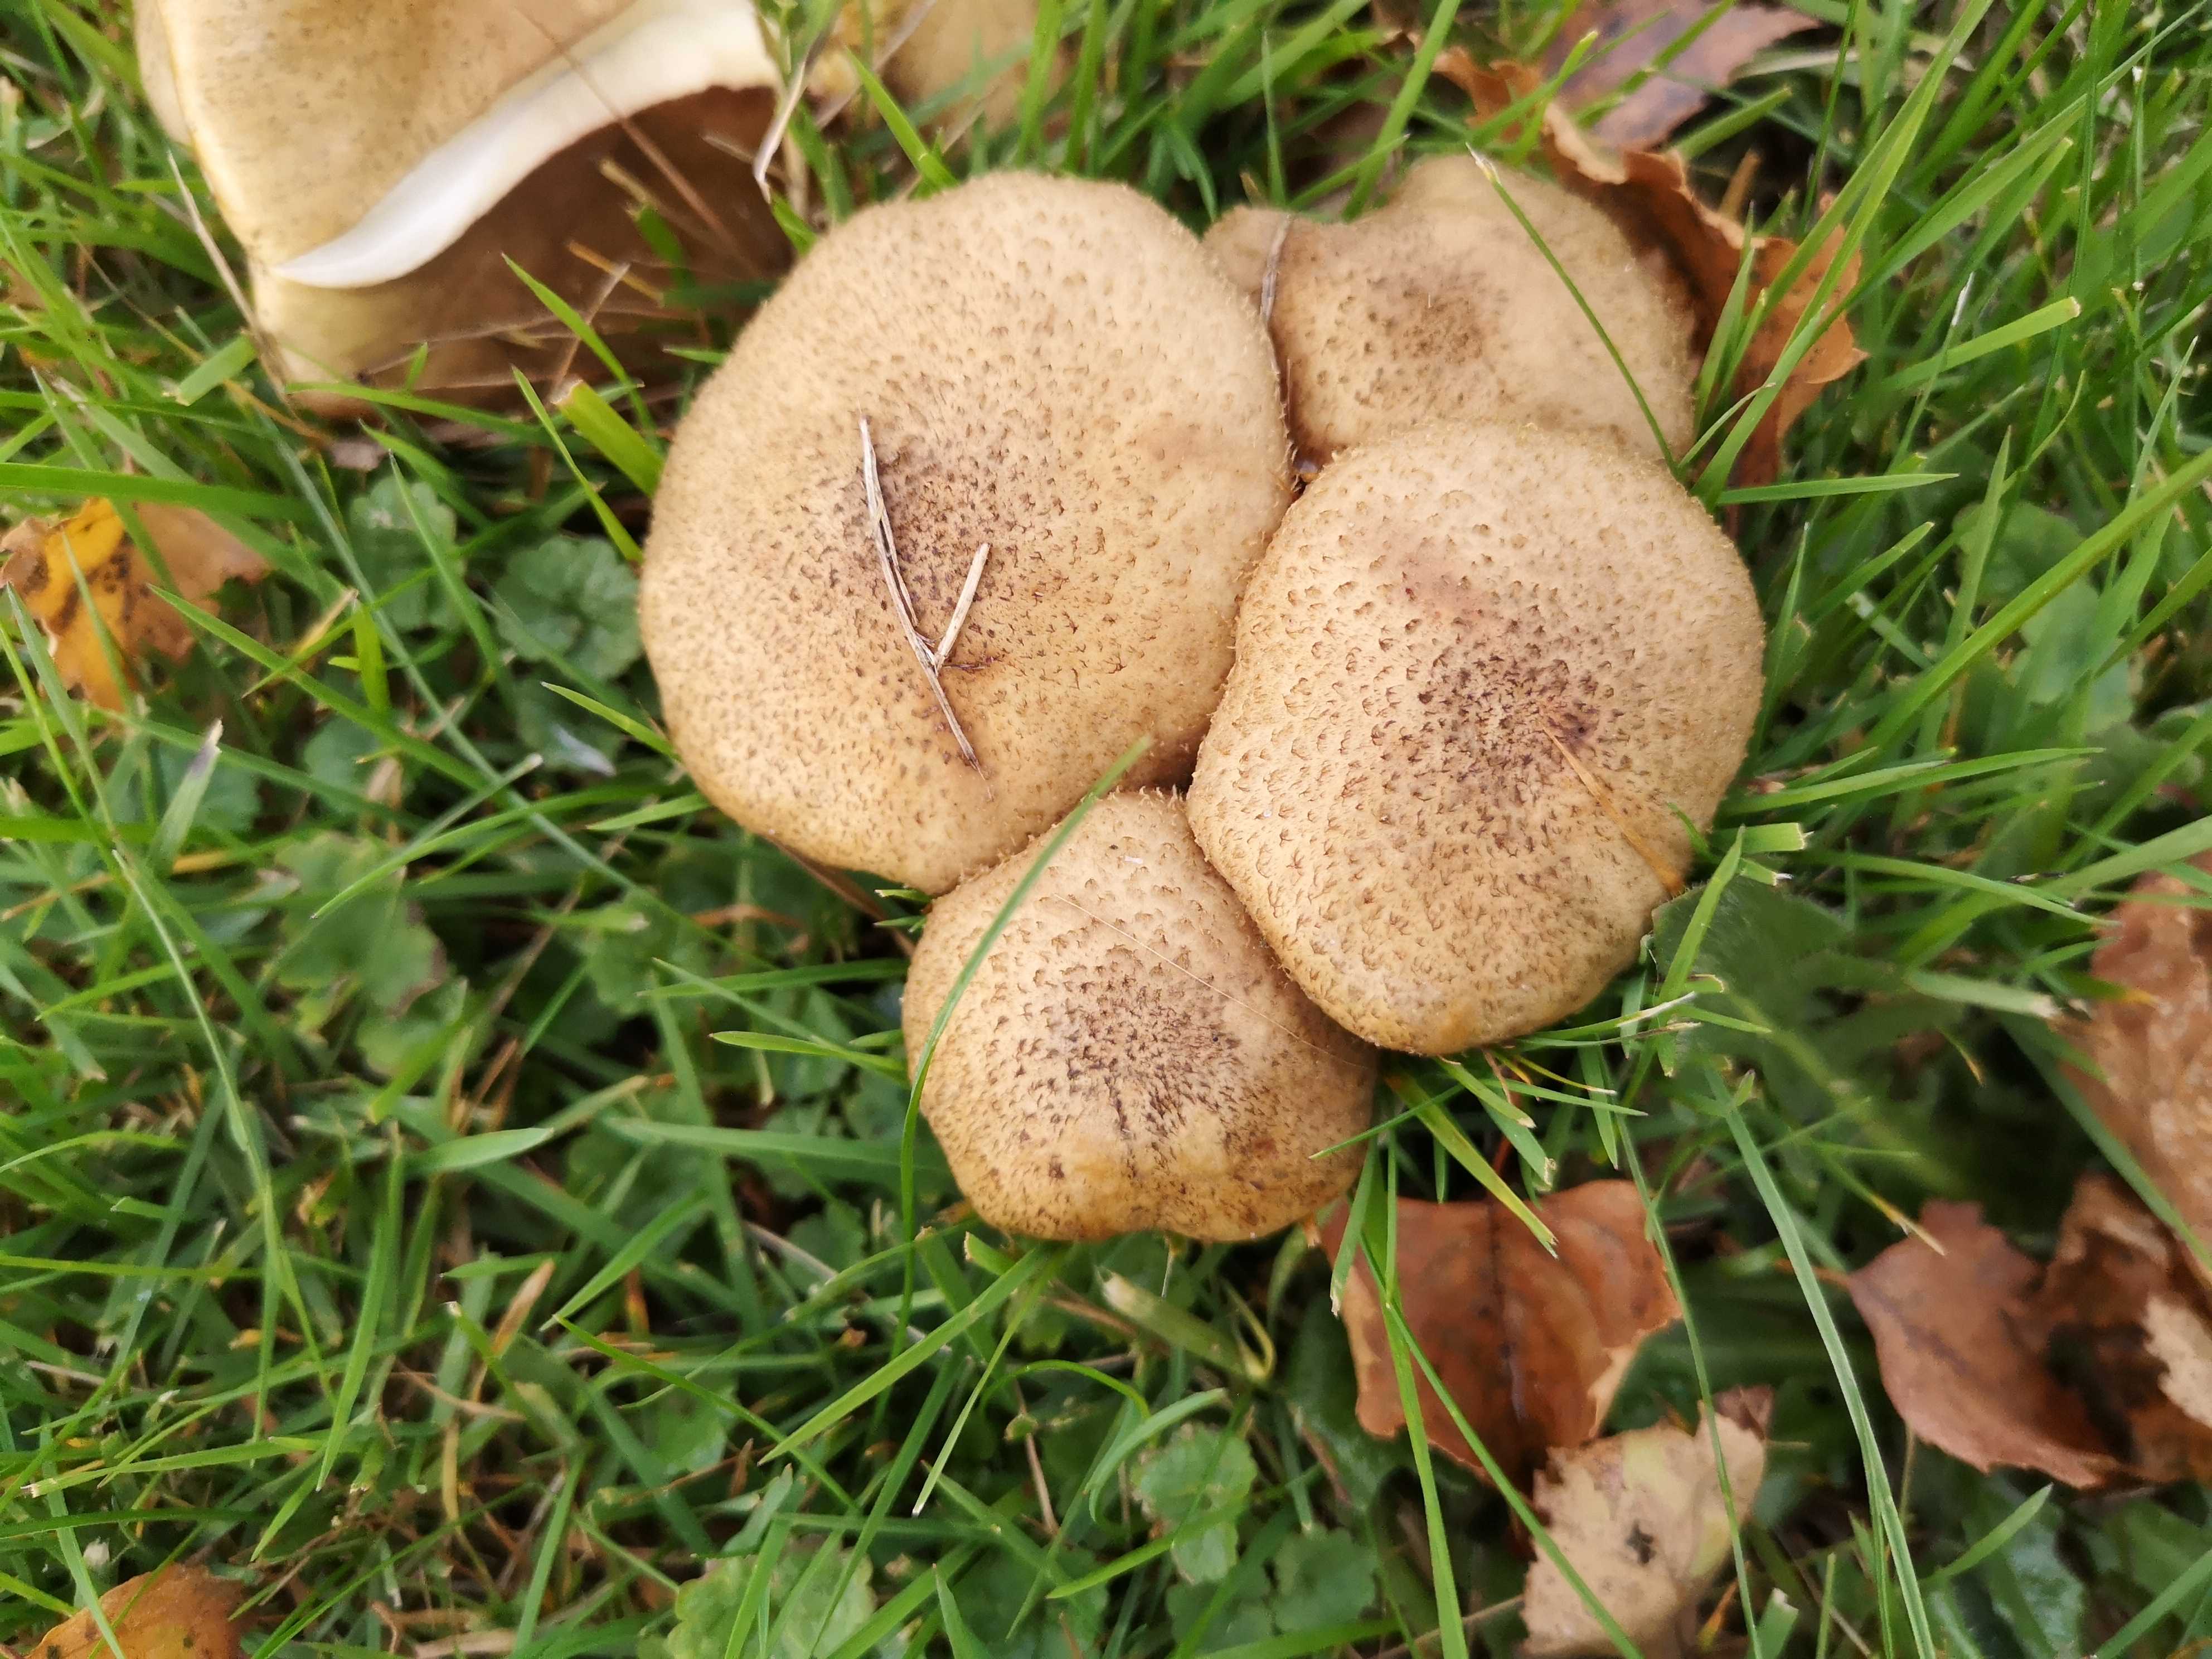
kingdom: Fungi
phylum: Basidiomycota
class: Agaricomycetes
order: Agaricales
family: Physalacriaceae
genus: Armillaria
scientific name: Armillaria lutea
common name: køllestokket honningsvamp
